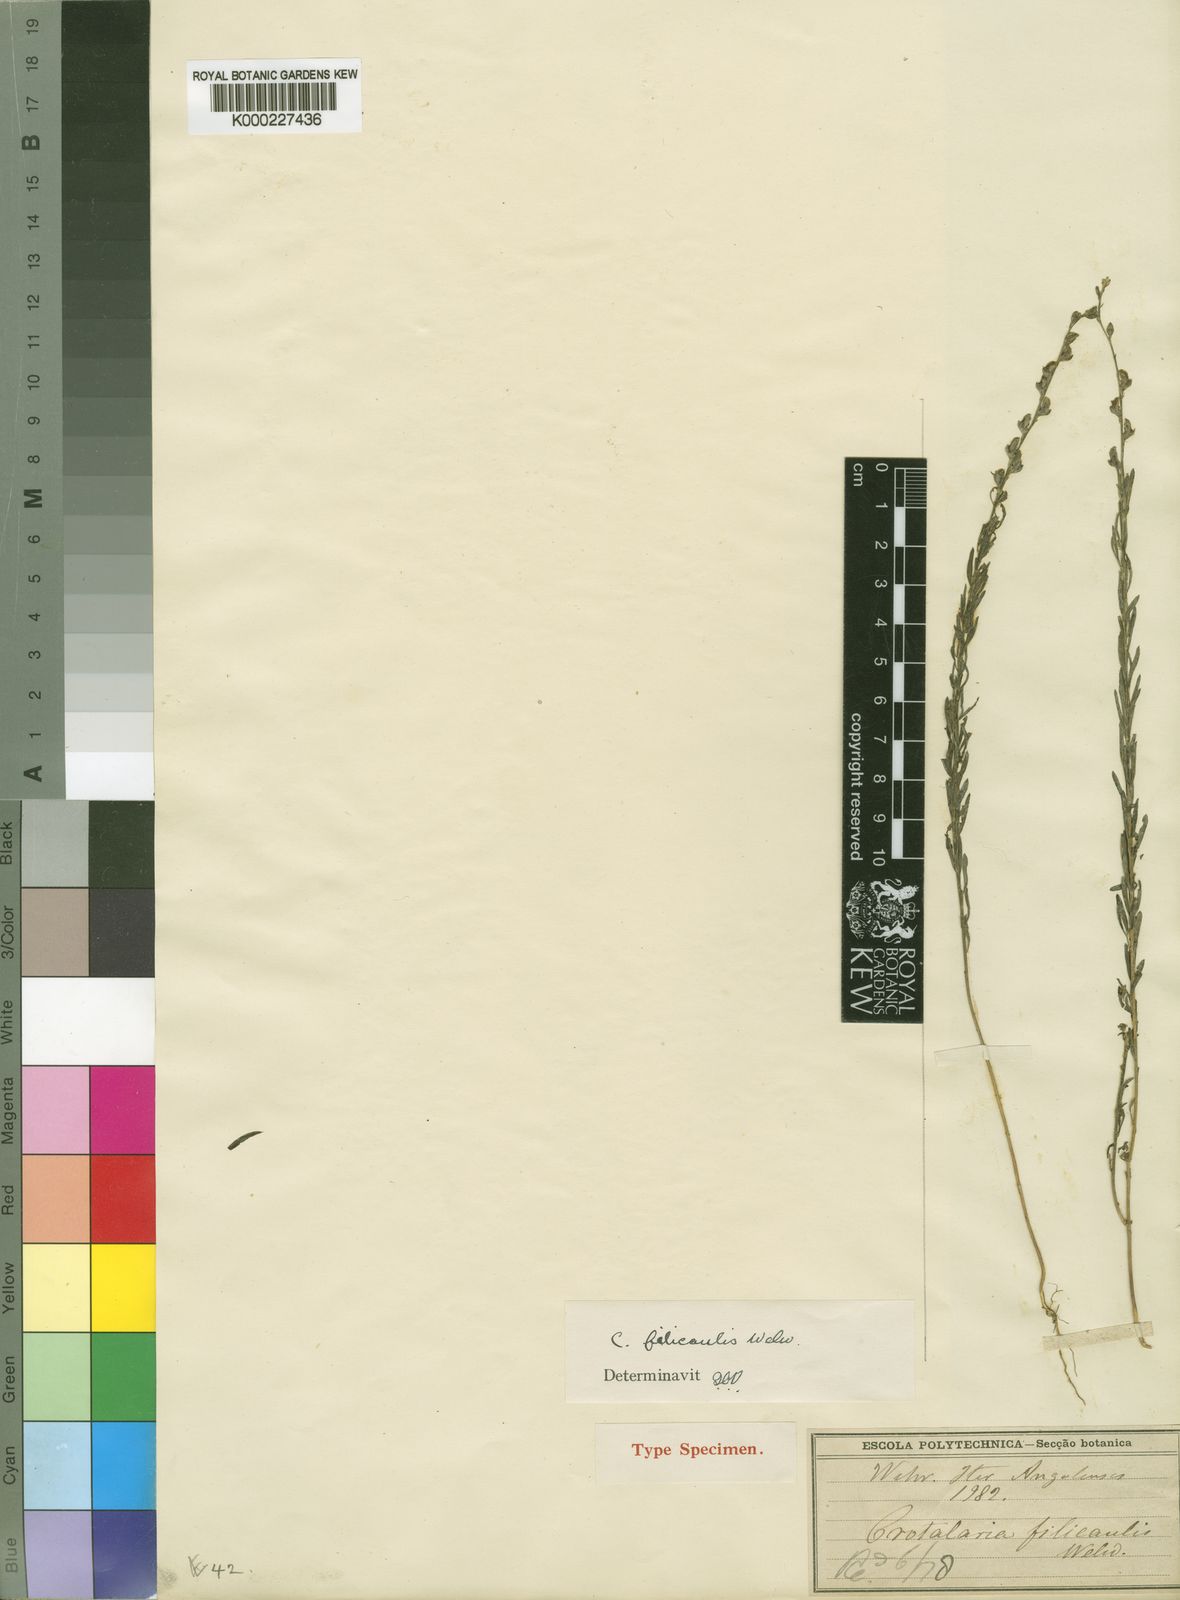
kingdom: Plantae
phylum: Tracheophyta
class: Magnoliopsida
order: Fabales
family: Fabaceae
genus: Crotalaria
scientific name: Crotalaria filicaulis
